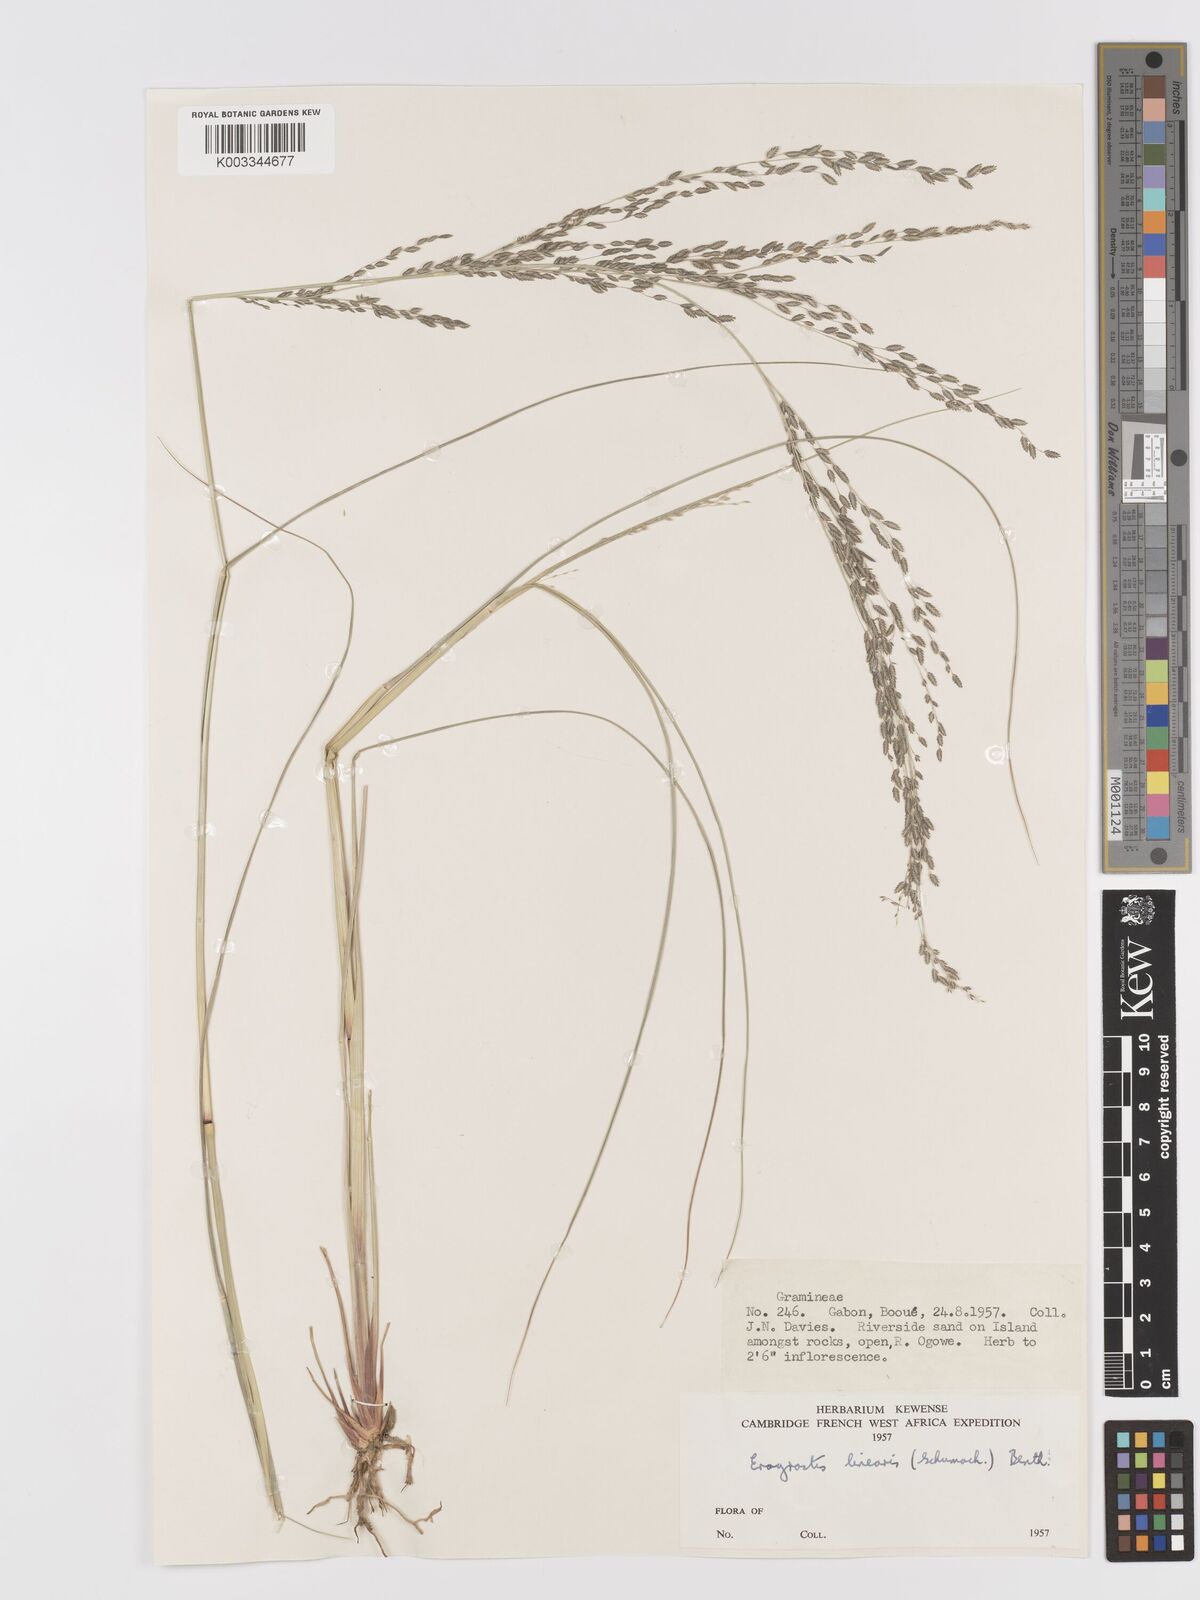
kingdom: Plantae
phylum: Tracheophyta
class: Liliopsida
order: Poales
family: Poaceae
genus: Eragrostis
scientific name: Eragrostis atrovirens
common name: Thalia lovegrass
